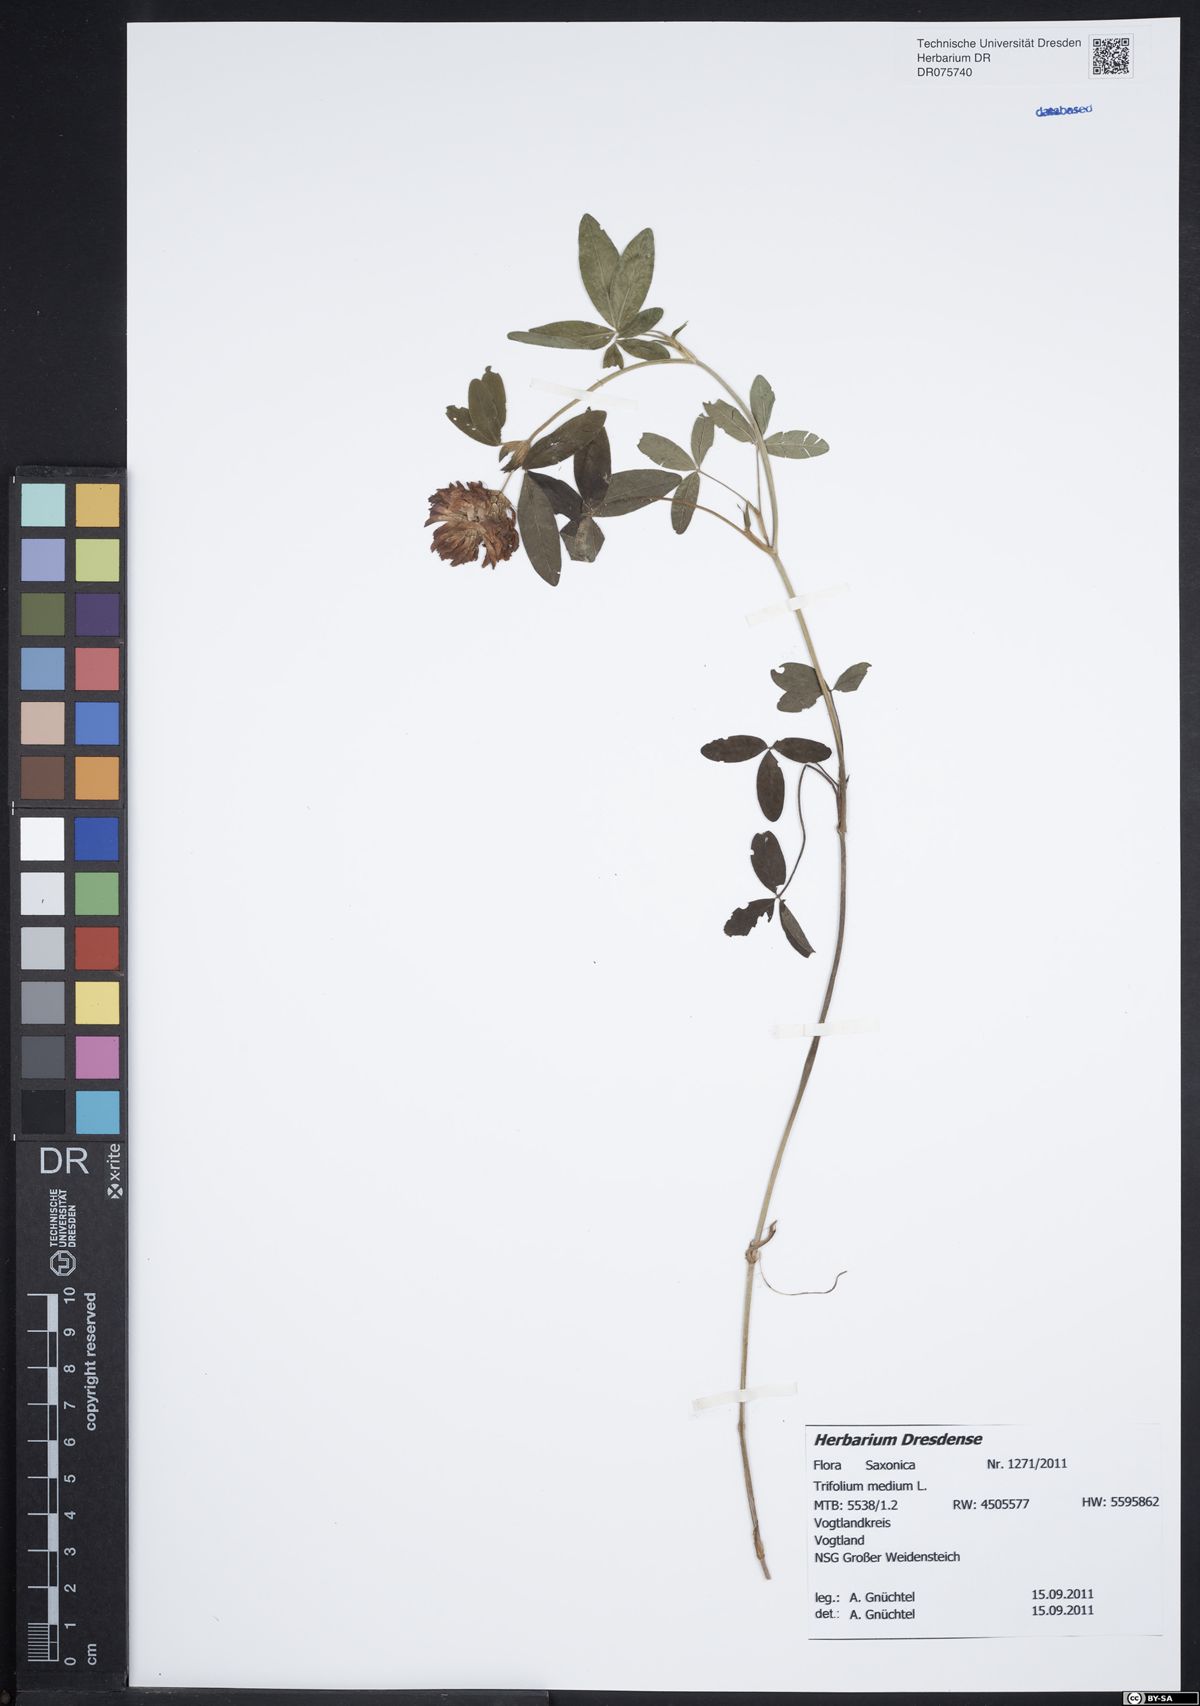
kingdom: Plantae
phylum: Tracheophyta
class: Magnoliopsida
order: Fabales
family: Fabaceae
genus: Trifolium
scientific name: Trifolium medium
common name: Zigzag clover
